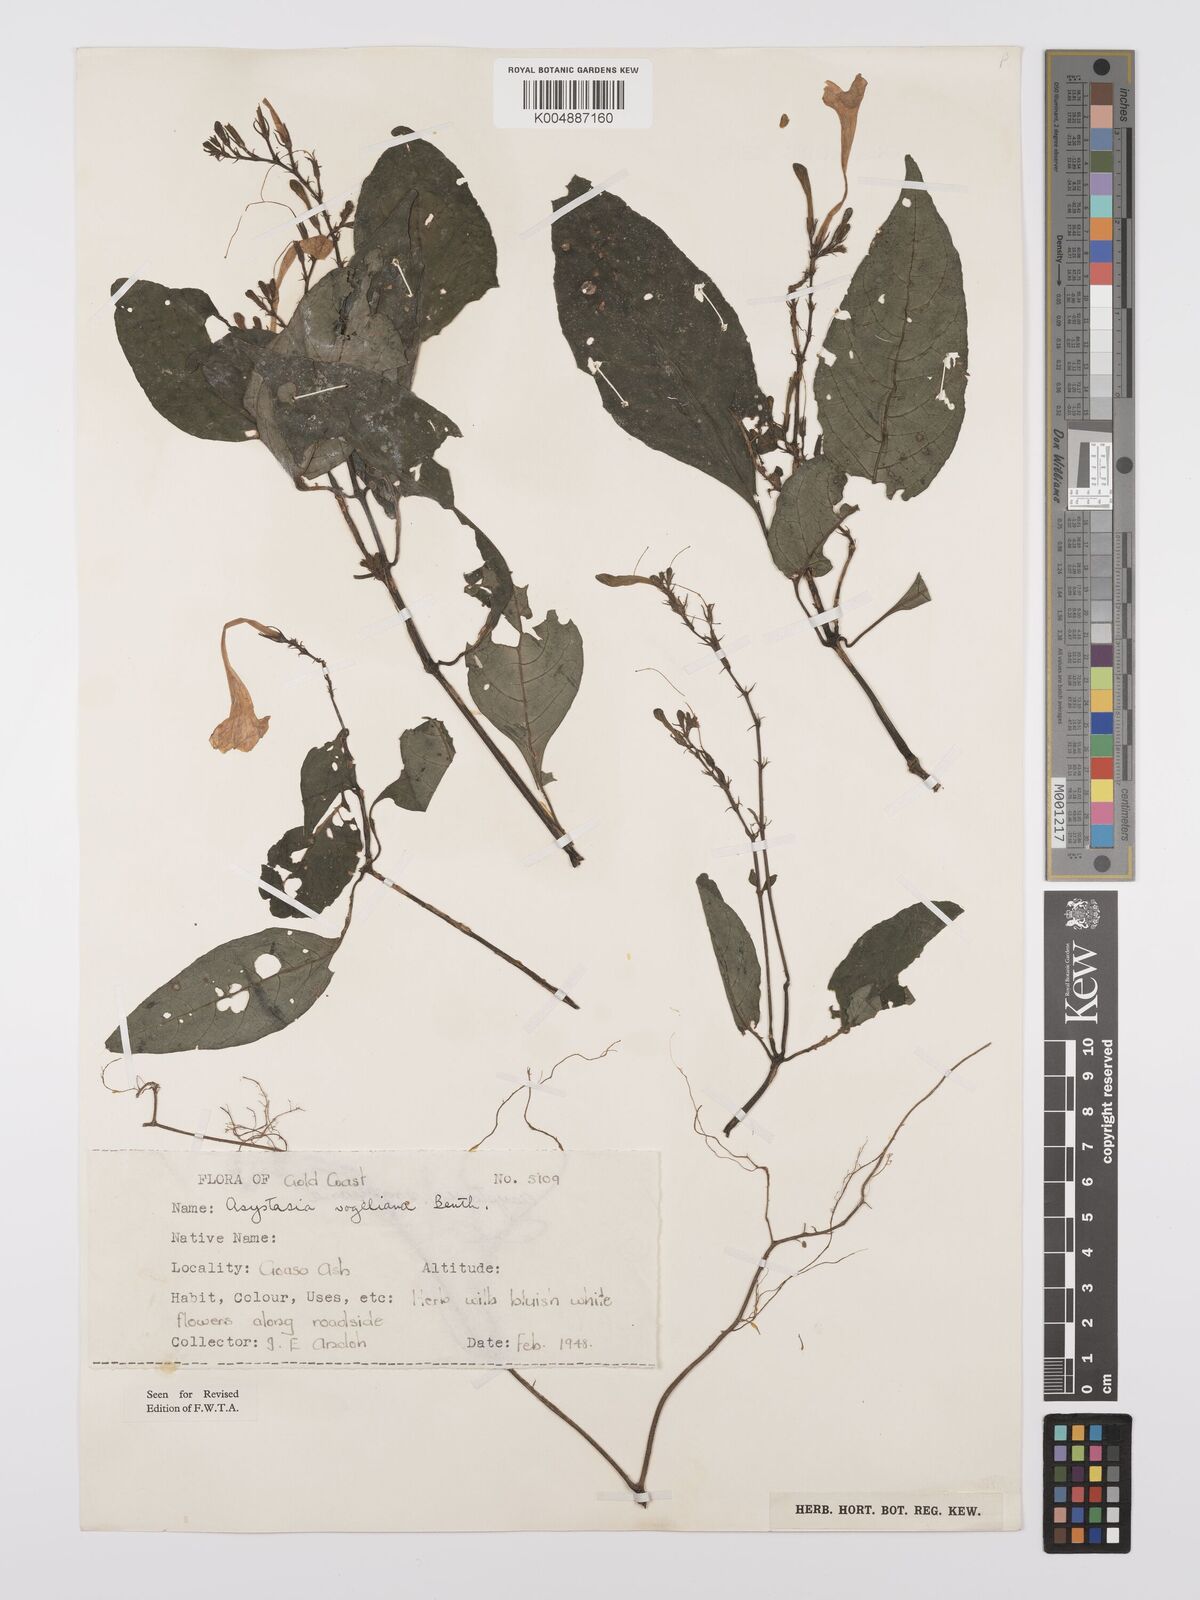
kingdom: Plantae
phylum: Tracheophyta
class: Magnoliopsida
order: Lamiales
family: Acanthaceae
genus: Asystasia
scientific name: Asystasia vogeliana
